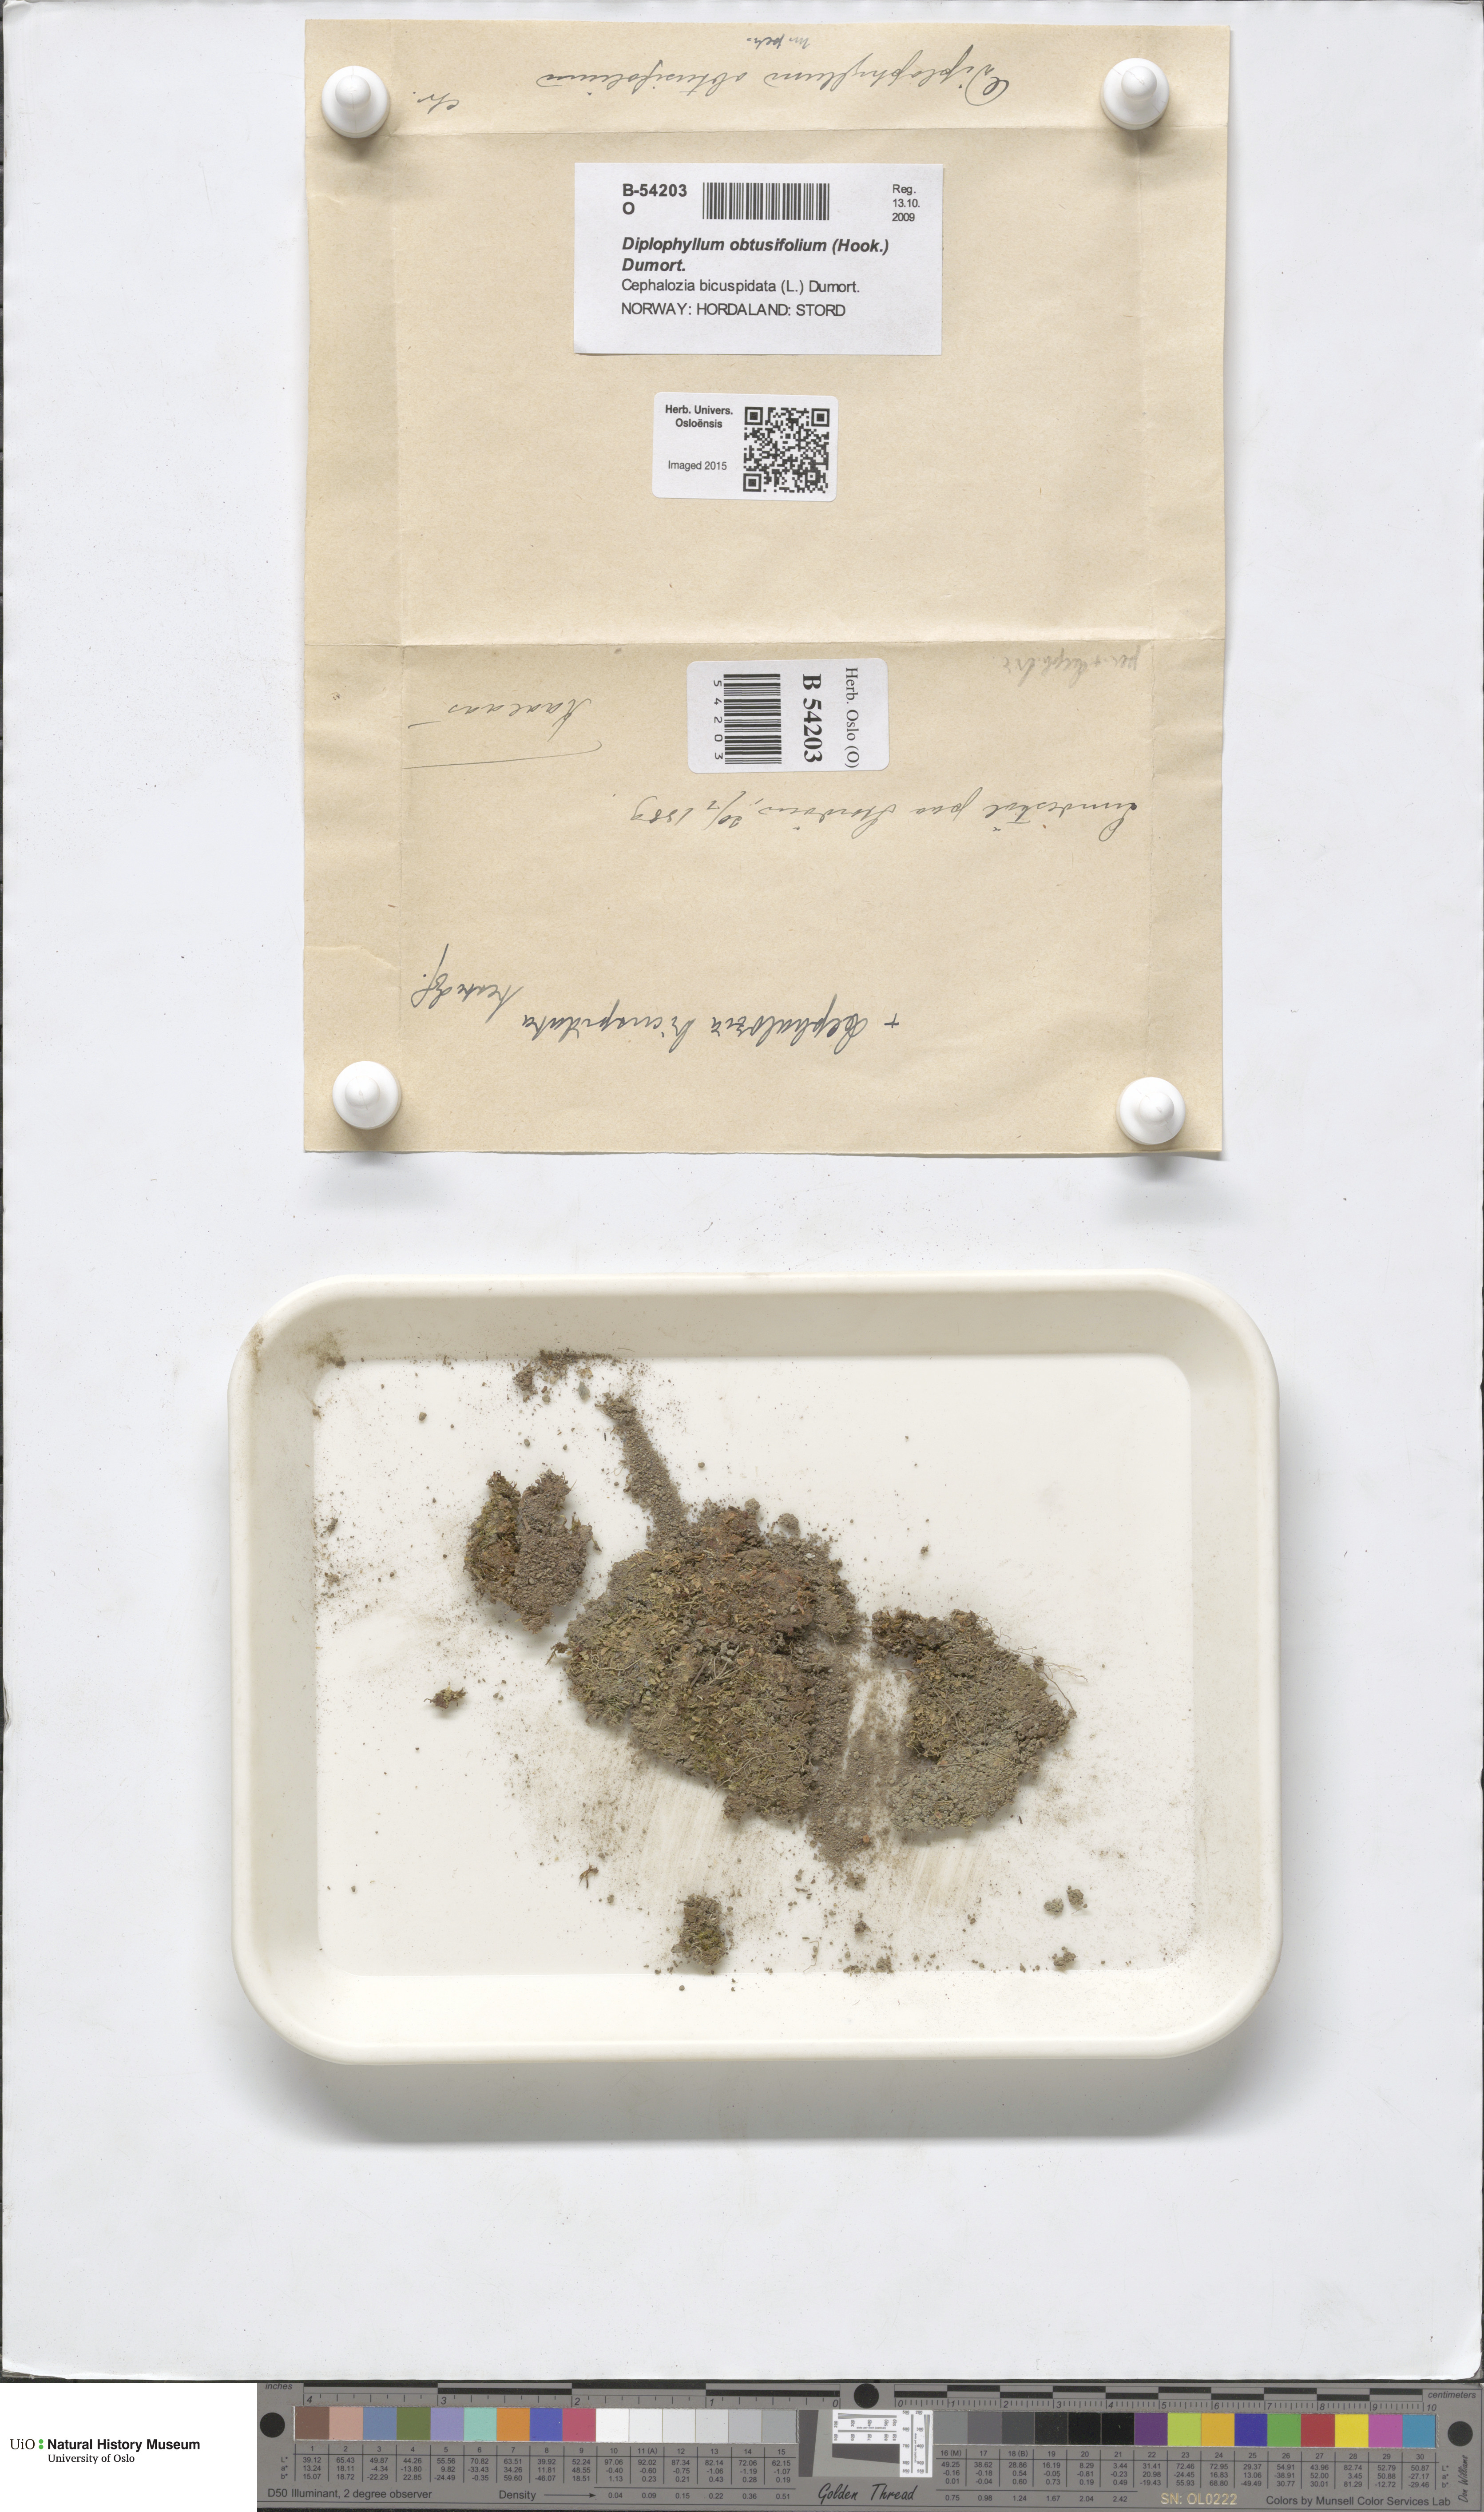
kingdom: Plantae
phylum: Marchantiophyta
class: Jungermanniopsida
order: Jungermanniales
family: Scapaniaceae
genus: Diplophyllum
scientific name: Diplophyllum obtusifolium
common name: Blunt-leaved earwort
